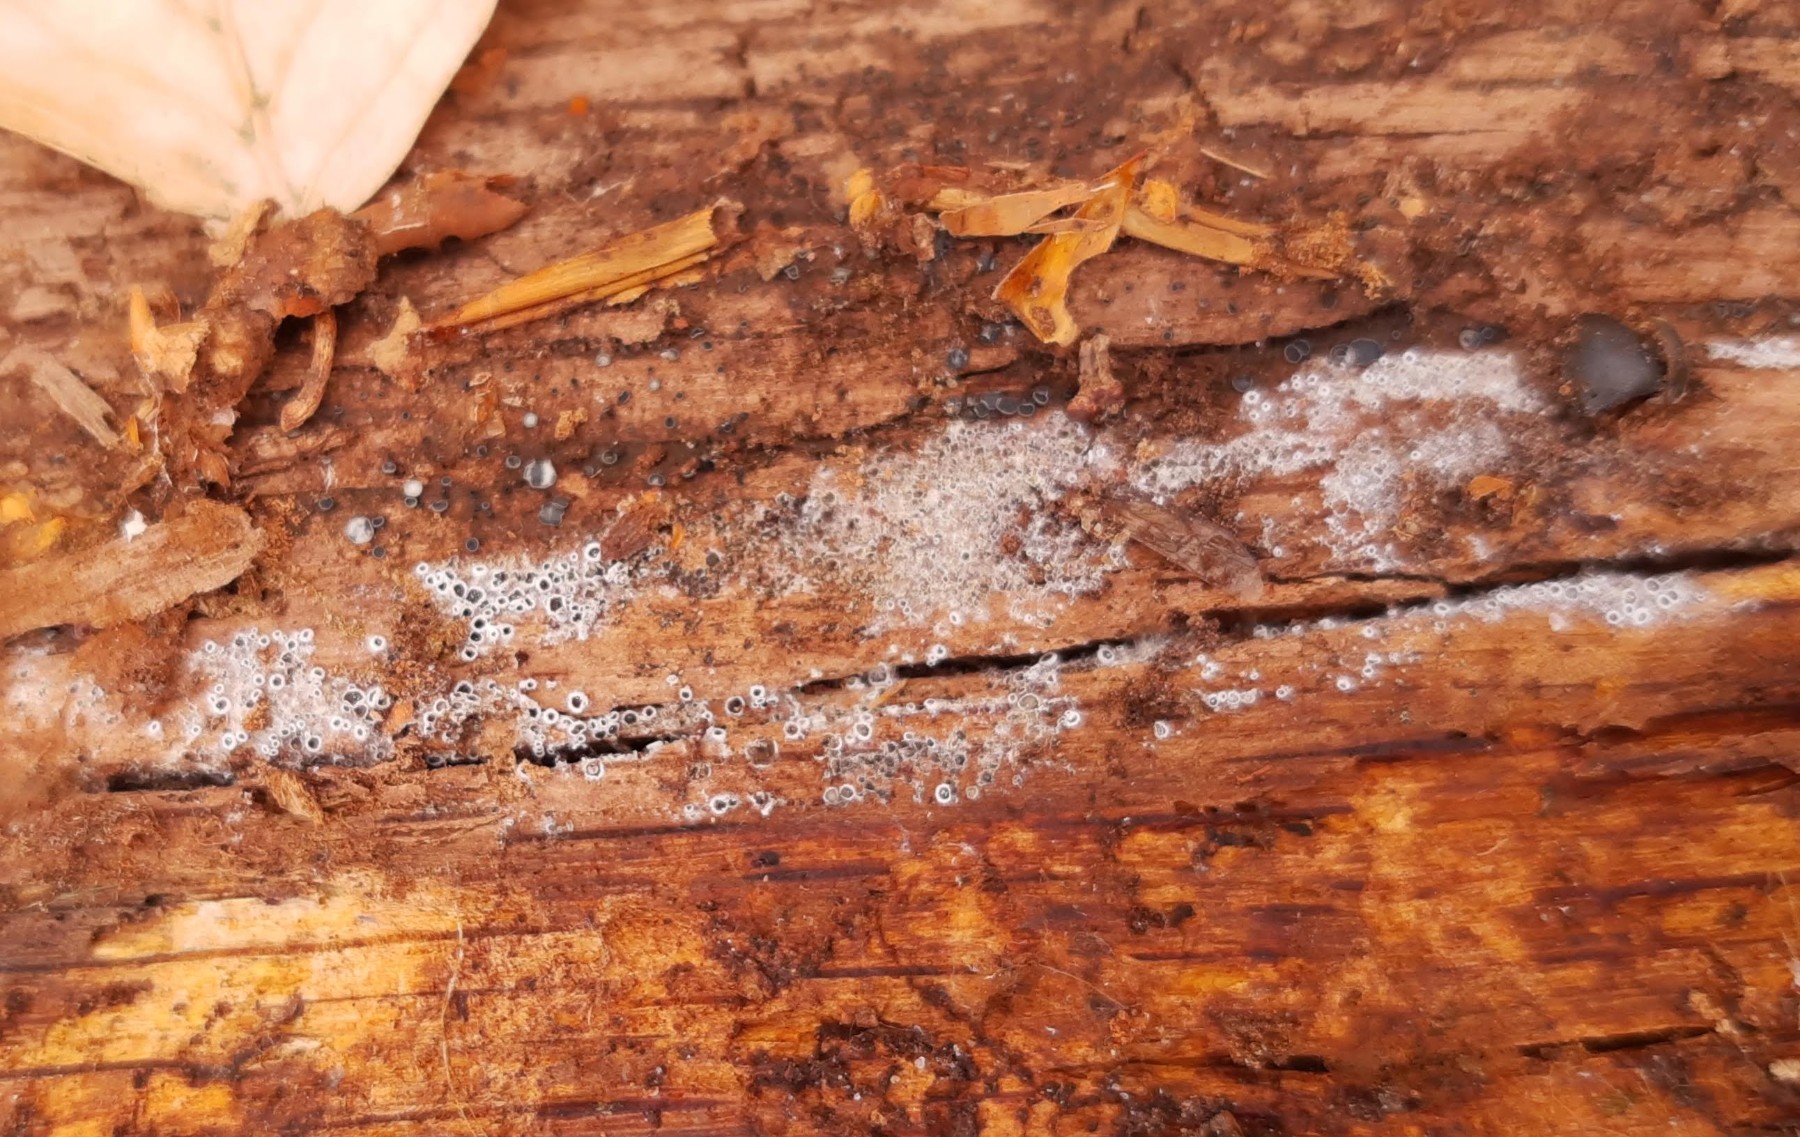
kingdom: Fungi
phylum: Ascomycota
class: Leotiomycetes
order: Helotiales
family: Arachnopezizaceae
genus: Eriopezia
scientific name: Eriopezia caesia
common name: ege-spindskive
